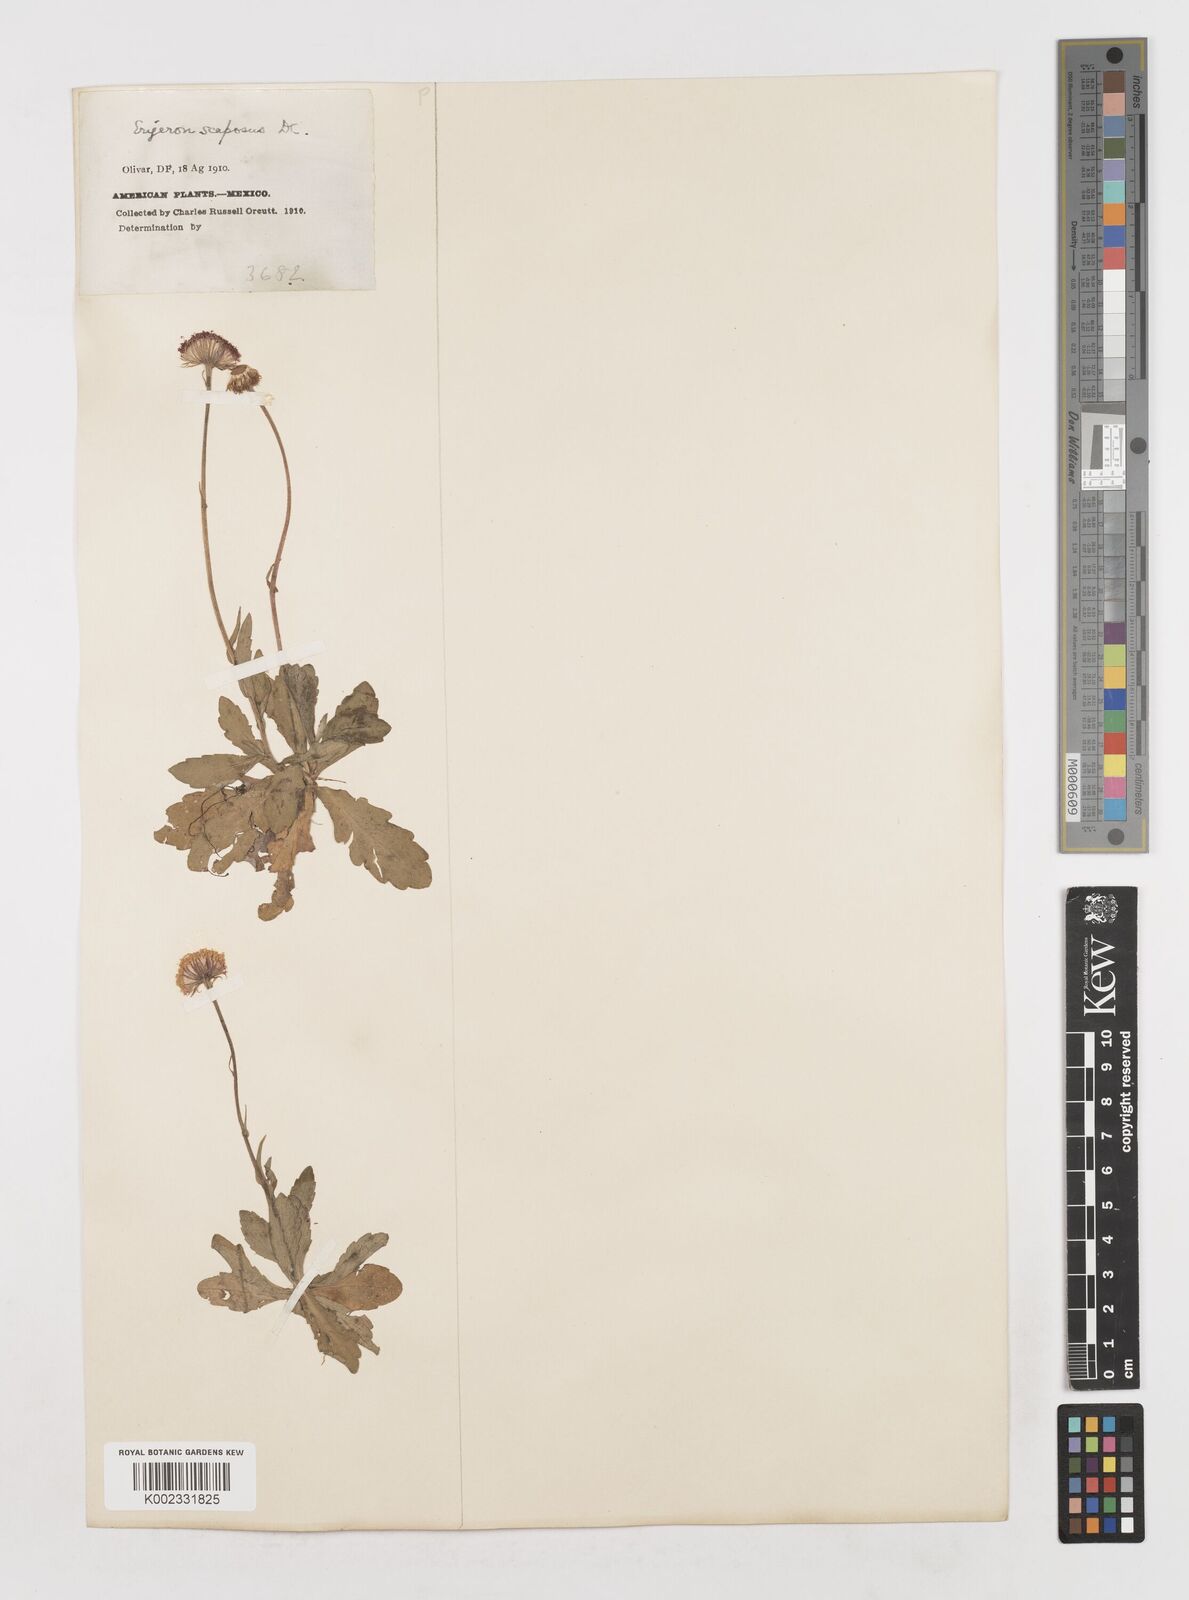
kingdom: Plantae
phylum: Tracheophyta
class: Magnoliopsida
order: Asterales
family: Asteraceae
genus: Erigeron
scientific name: Erigeron longipes
